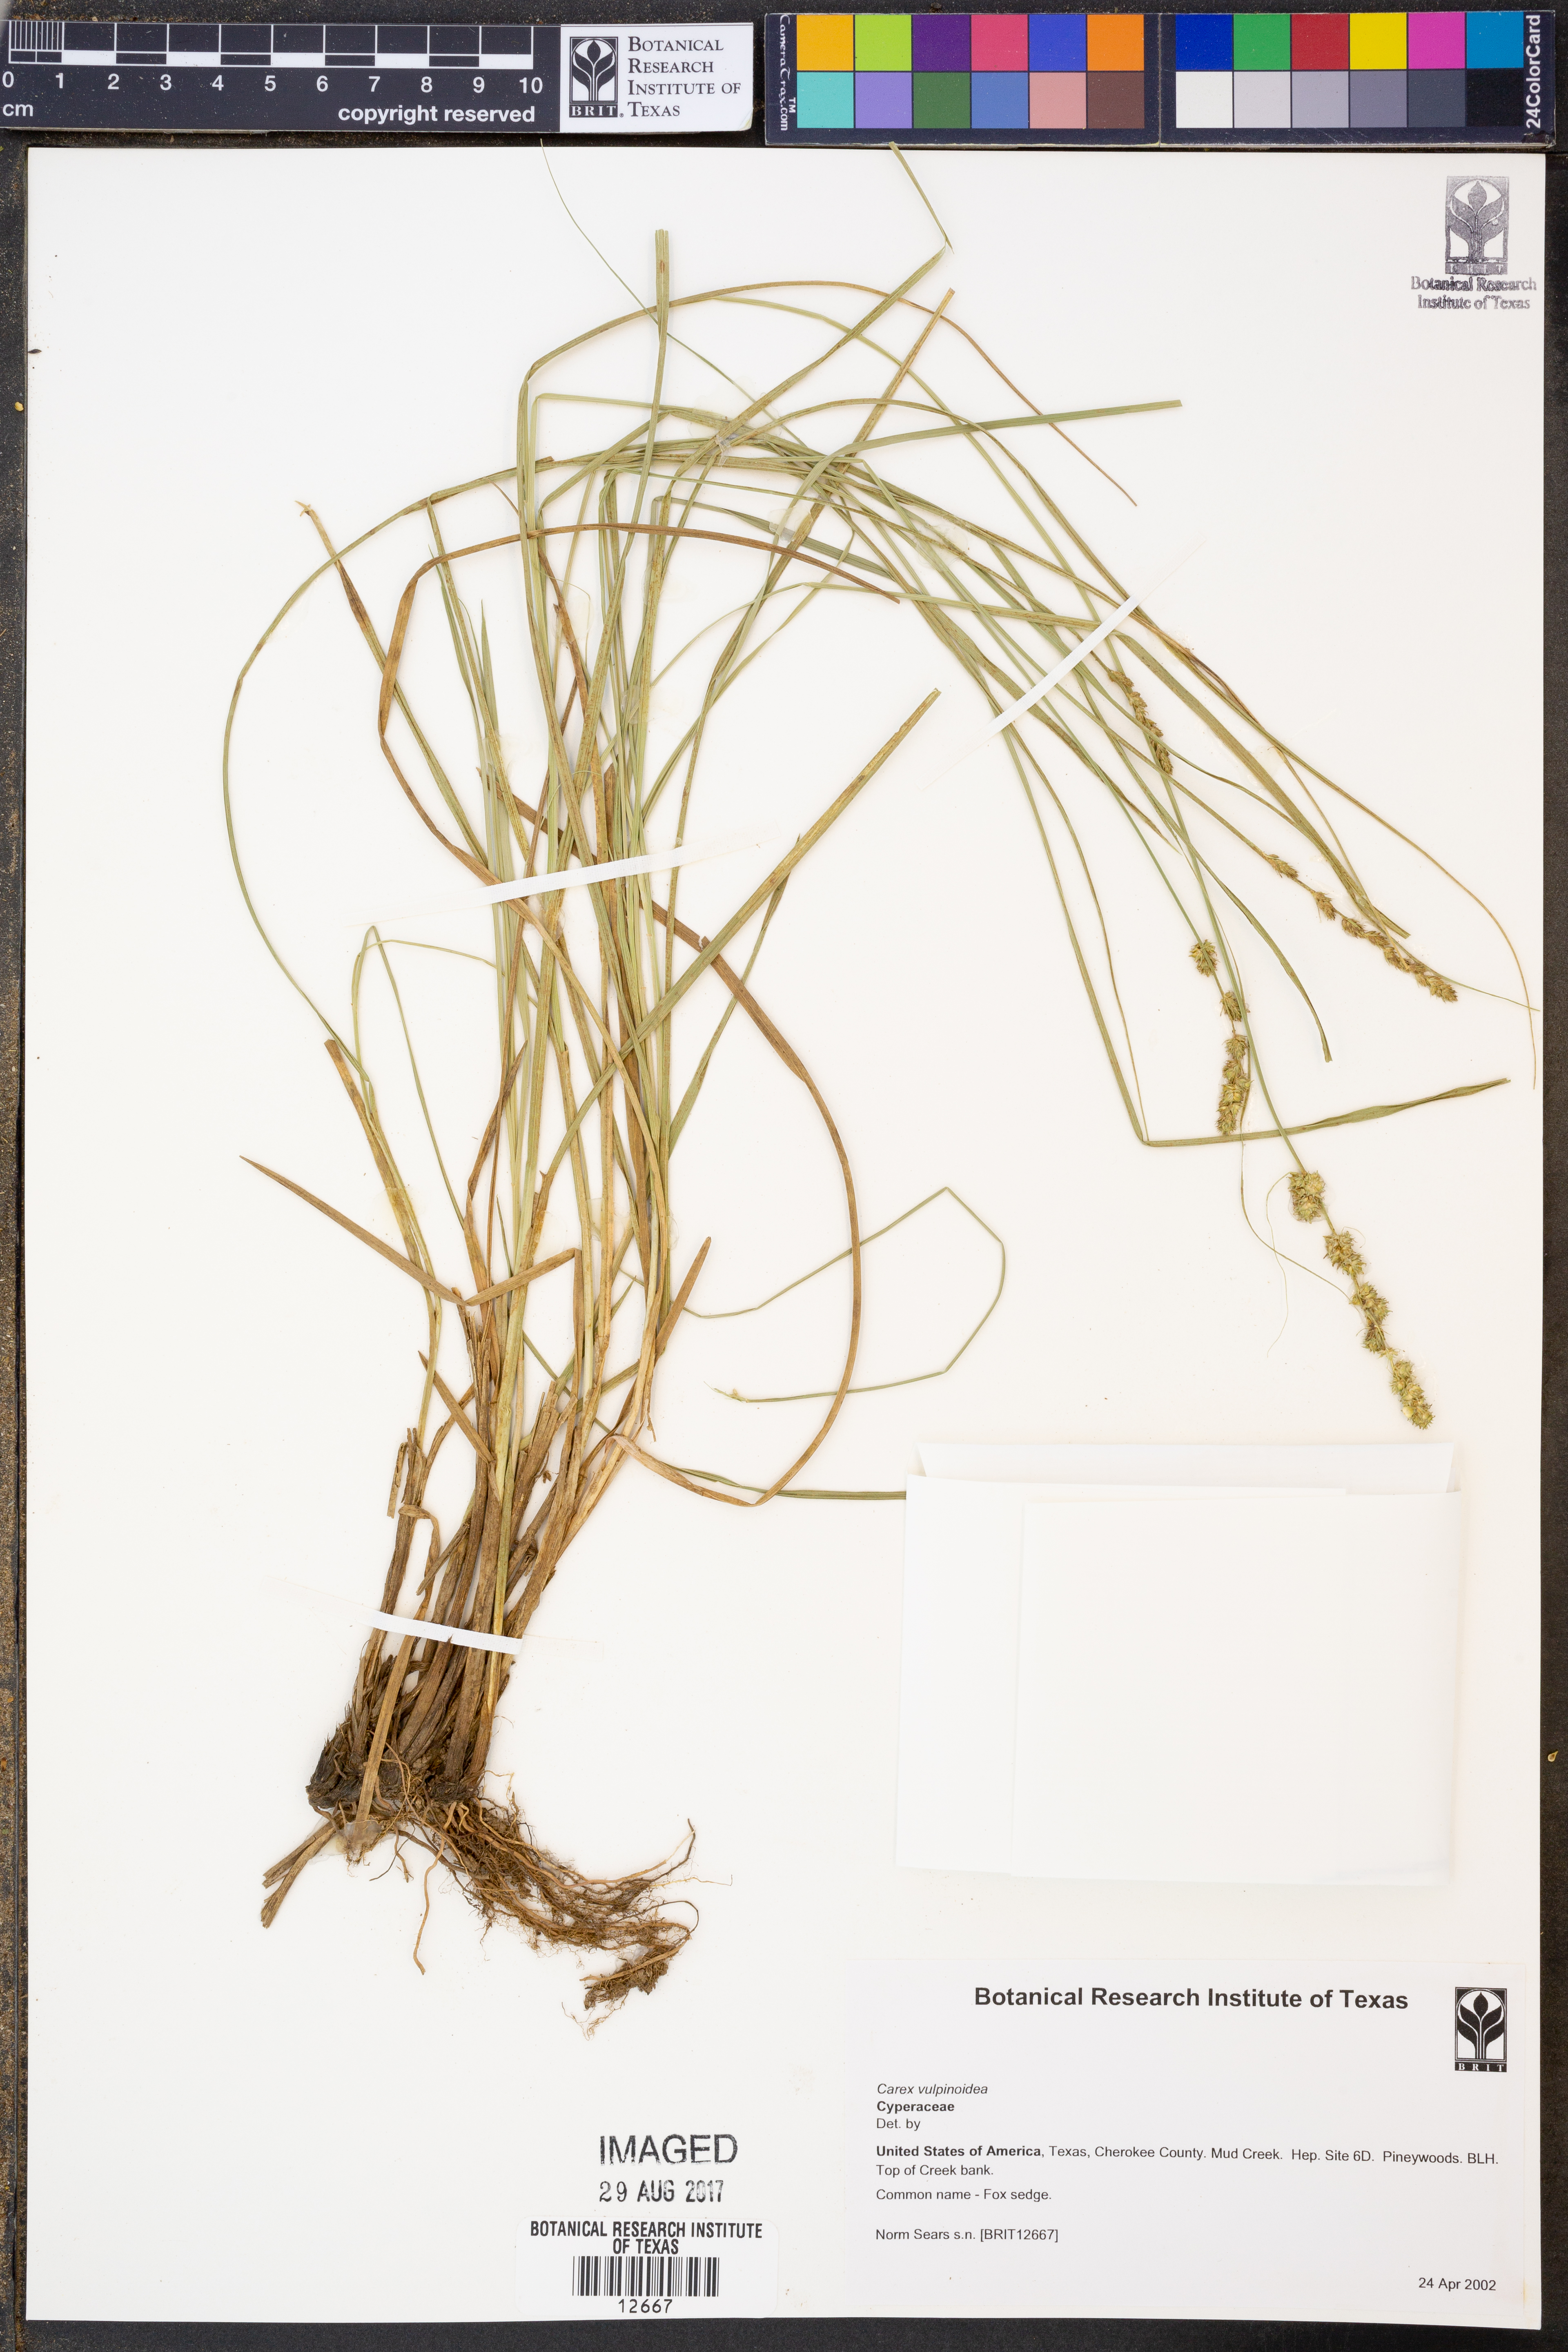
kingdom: Plantae
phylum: Tracheophyta
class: Liliopsida
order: Poales
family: Cyperaceae
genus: Carex
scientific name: Carex vulpinoidea
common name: American fox-sedge
